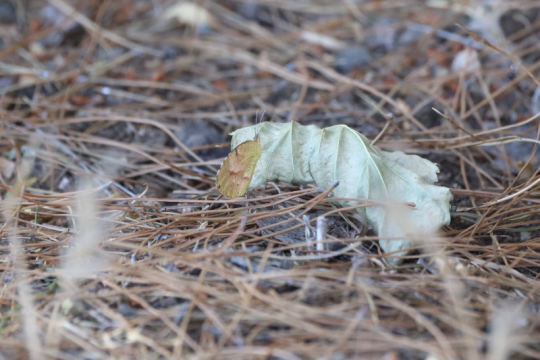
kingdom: Animalia
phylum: Arthropoda
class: Insecta
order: Lepidoptera
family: Pieridae
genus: Abaeis
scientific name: Abaeis nicippe
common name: Sleepy Orange
